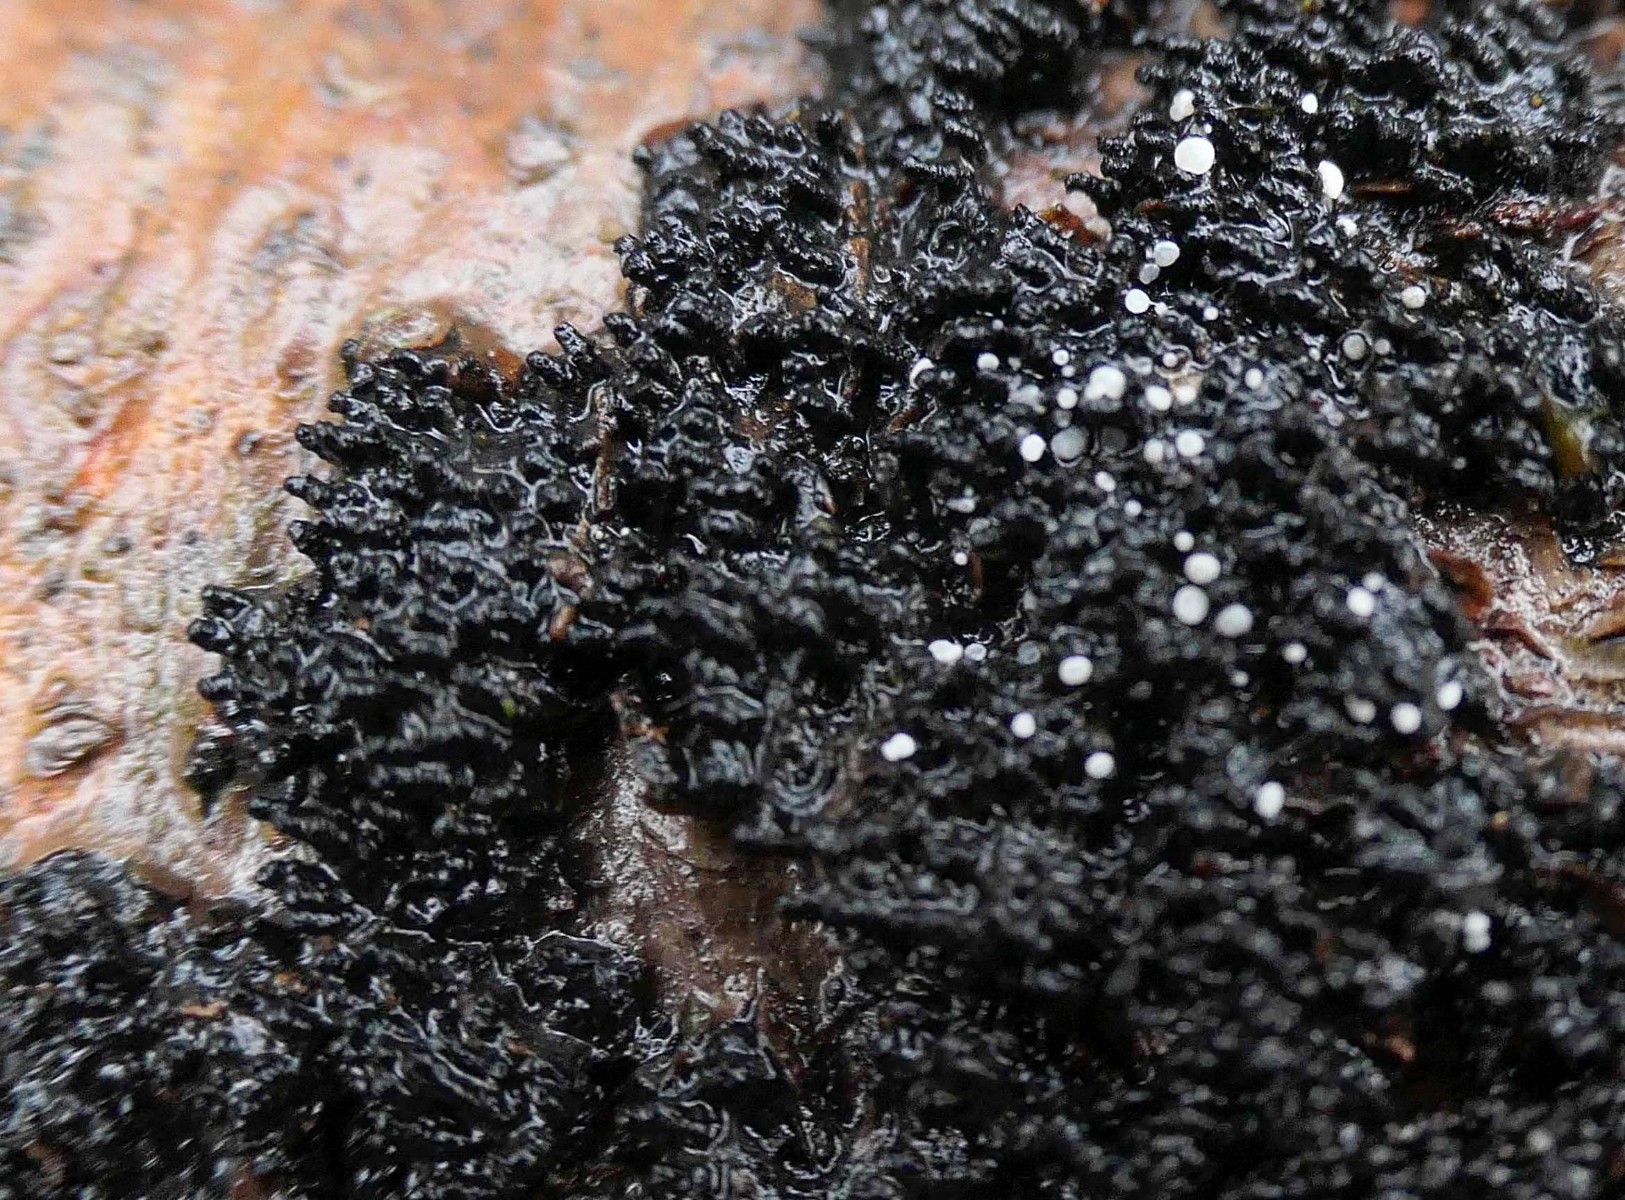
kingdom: Fungi
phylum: Ascomycota
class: Leotiomycetes
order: Helotiales
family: Hyaloscyphaceae
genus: Polydesmia
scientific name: Polydesmia pruinosa
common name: dunskive
